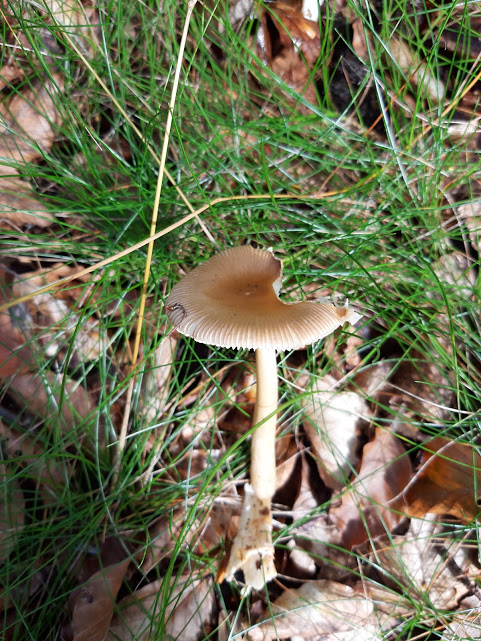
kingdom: Fungi
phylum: Basidiomycota
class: Agaricomycetes
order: Agaricales
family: Amanitaceae
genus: Amanita
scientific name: Amanita fulva
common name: brun kam-fluesvamp
